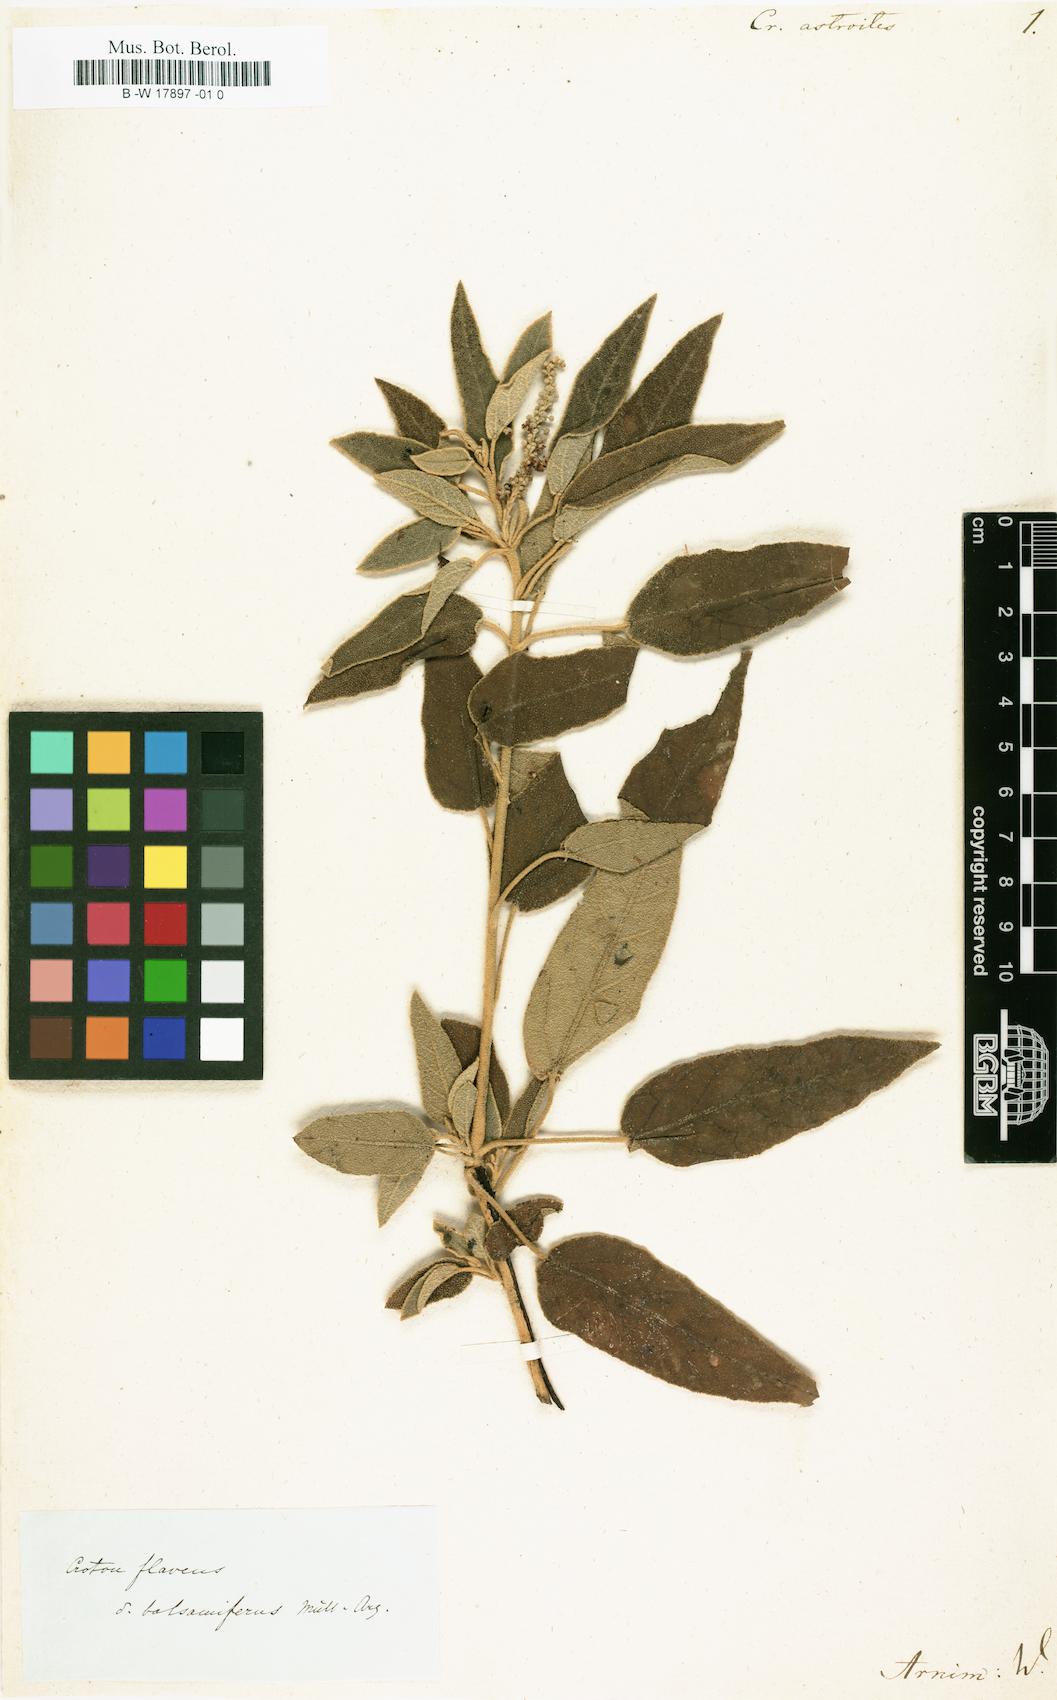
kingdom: Plantae
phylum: Tracheophyta
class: Magnoliopsida
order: Malpighiales
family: Euphorbiaceae
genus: Croton
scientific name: Croton astroites
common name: Wild marrow
